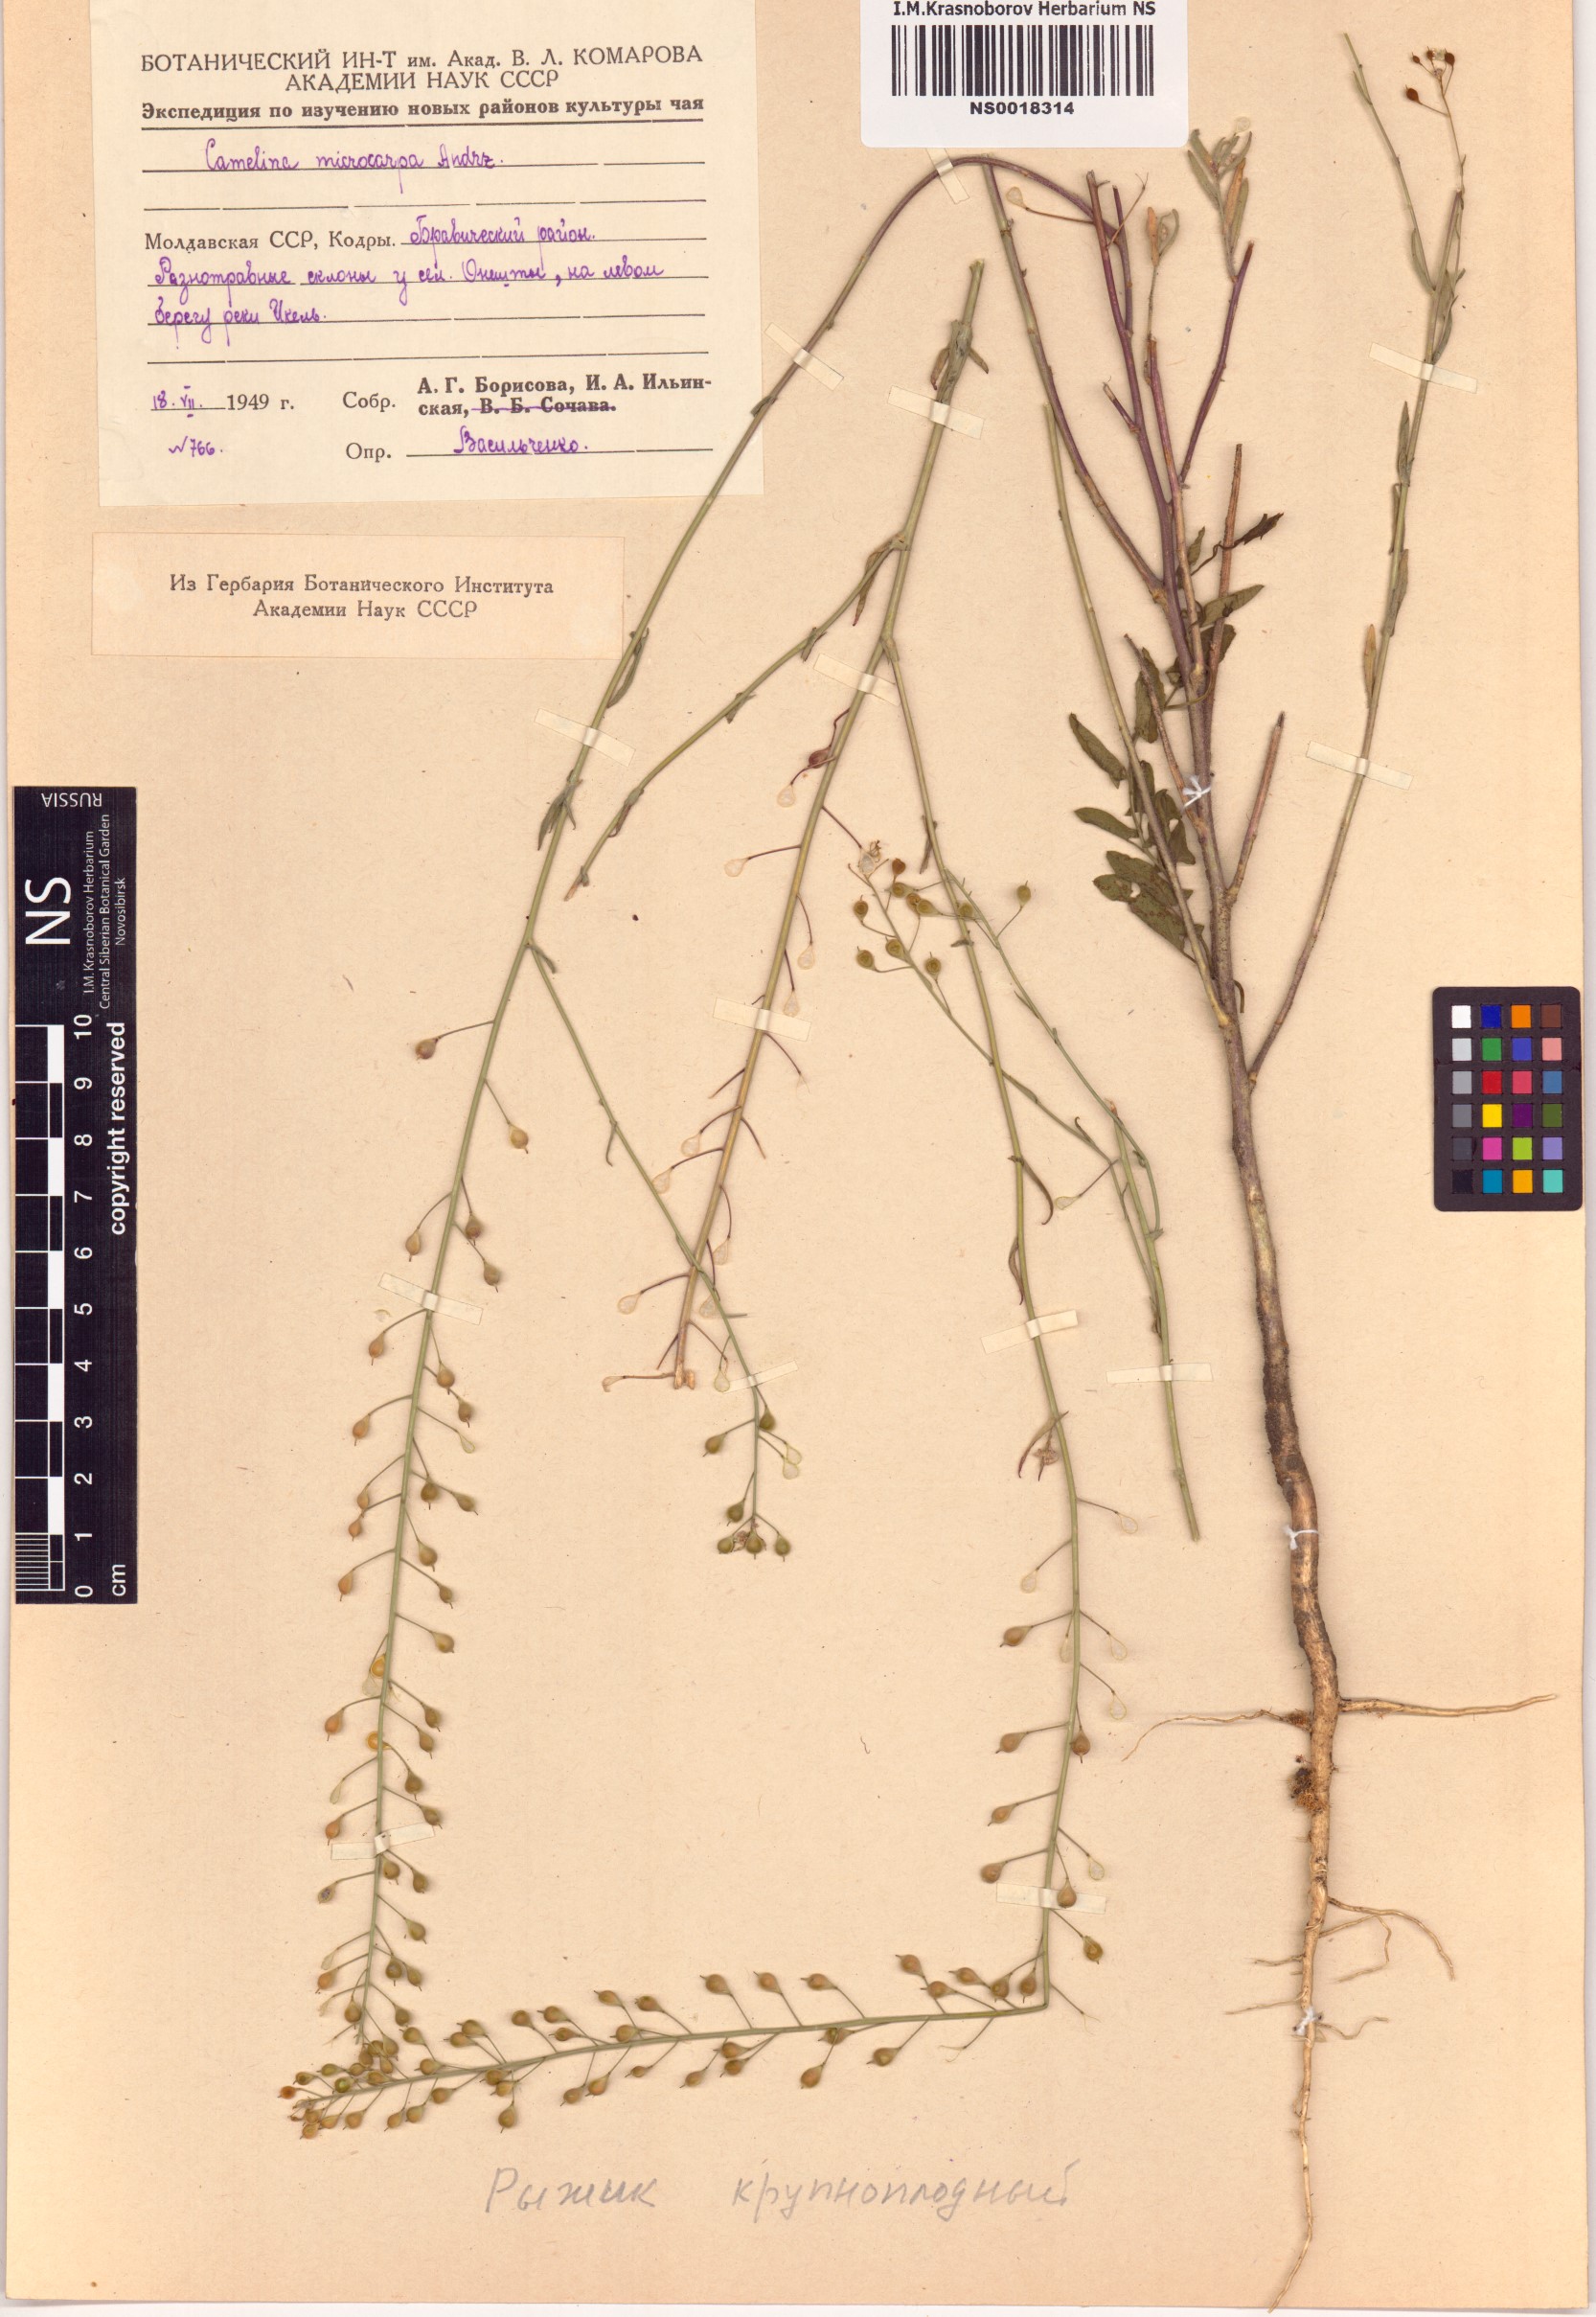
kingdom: Plantae
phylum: Tracheophyta
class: Magnoliopsida
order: Brassicales
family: Brassicaceae
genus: Camelina
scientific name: Camelina microcarpa
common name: Lesser gold-of-pleasure
